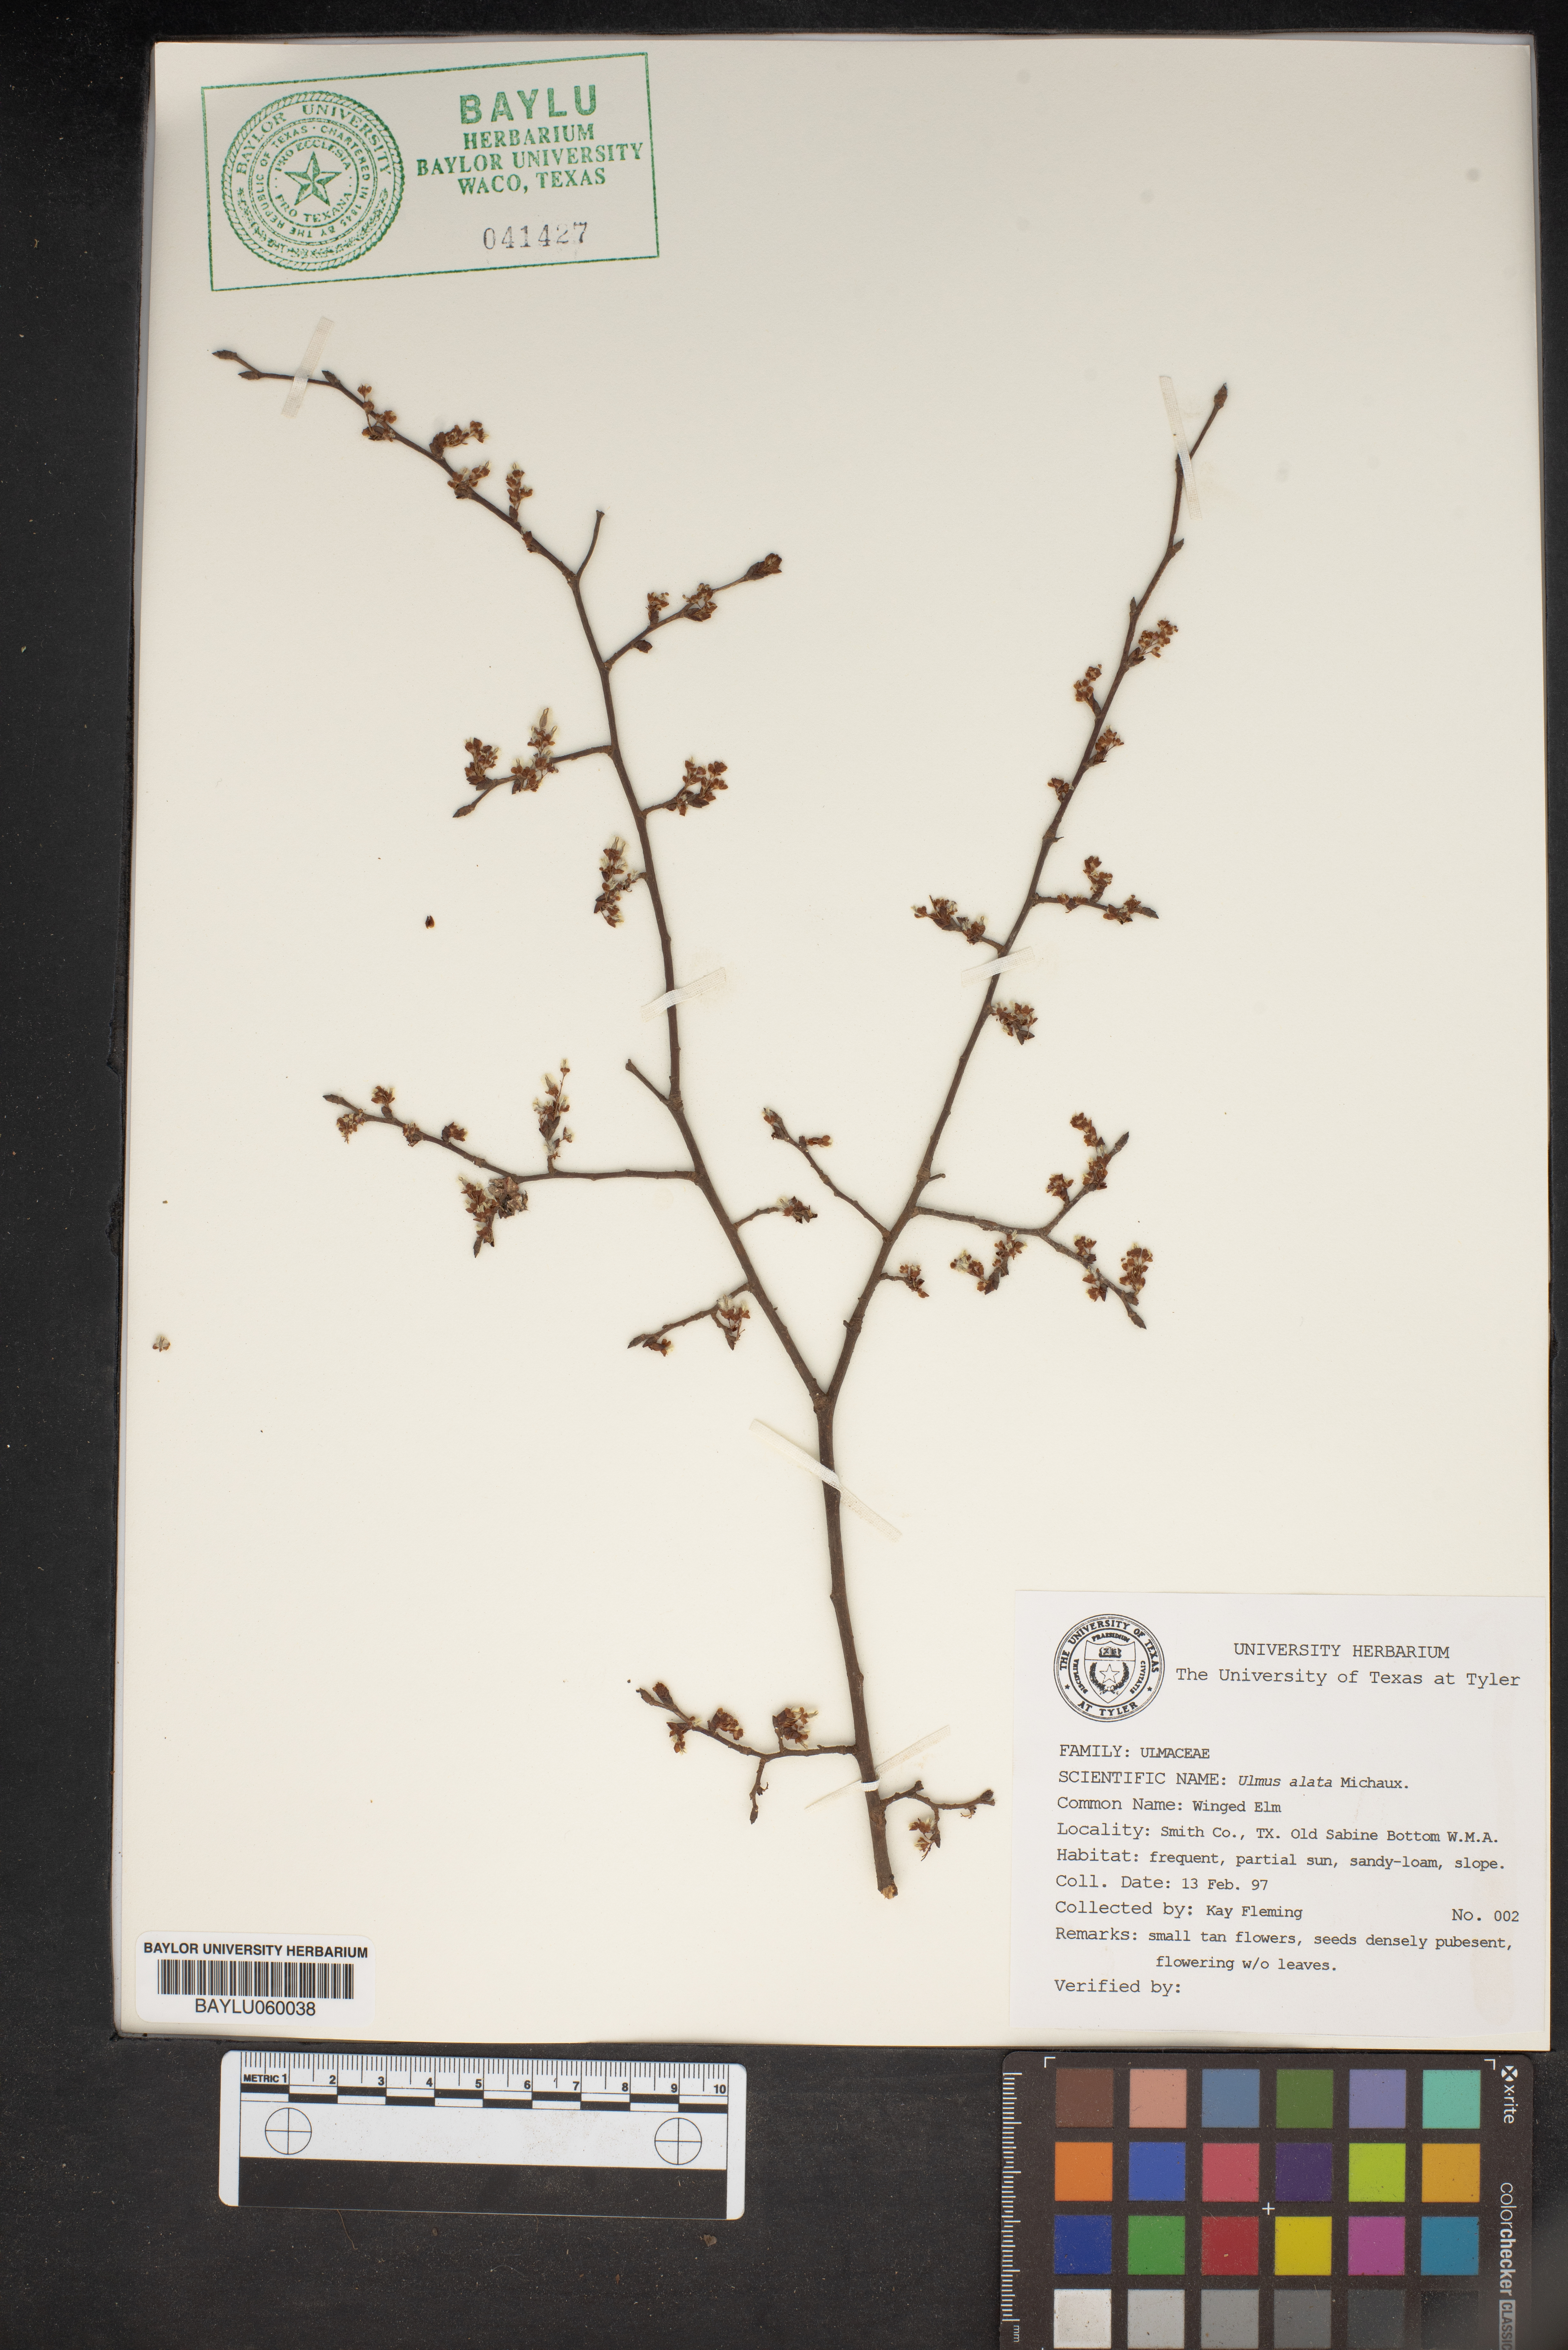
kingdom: Plantae
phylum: Tracheophyta
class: Magnoliopsida
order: Rosales
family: Ulmaceae
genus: Ulmus
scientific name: Ulmus alata
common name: Winged elm
